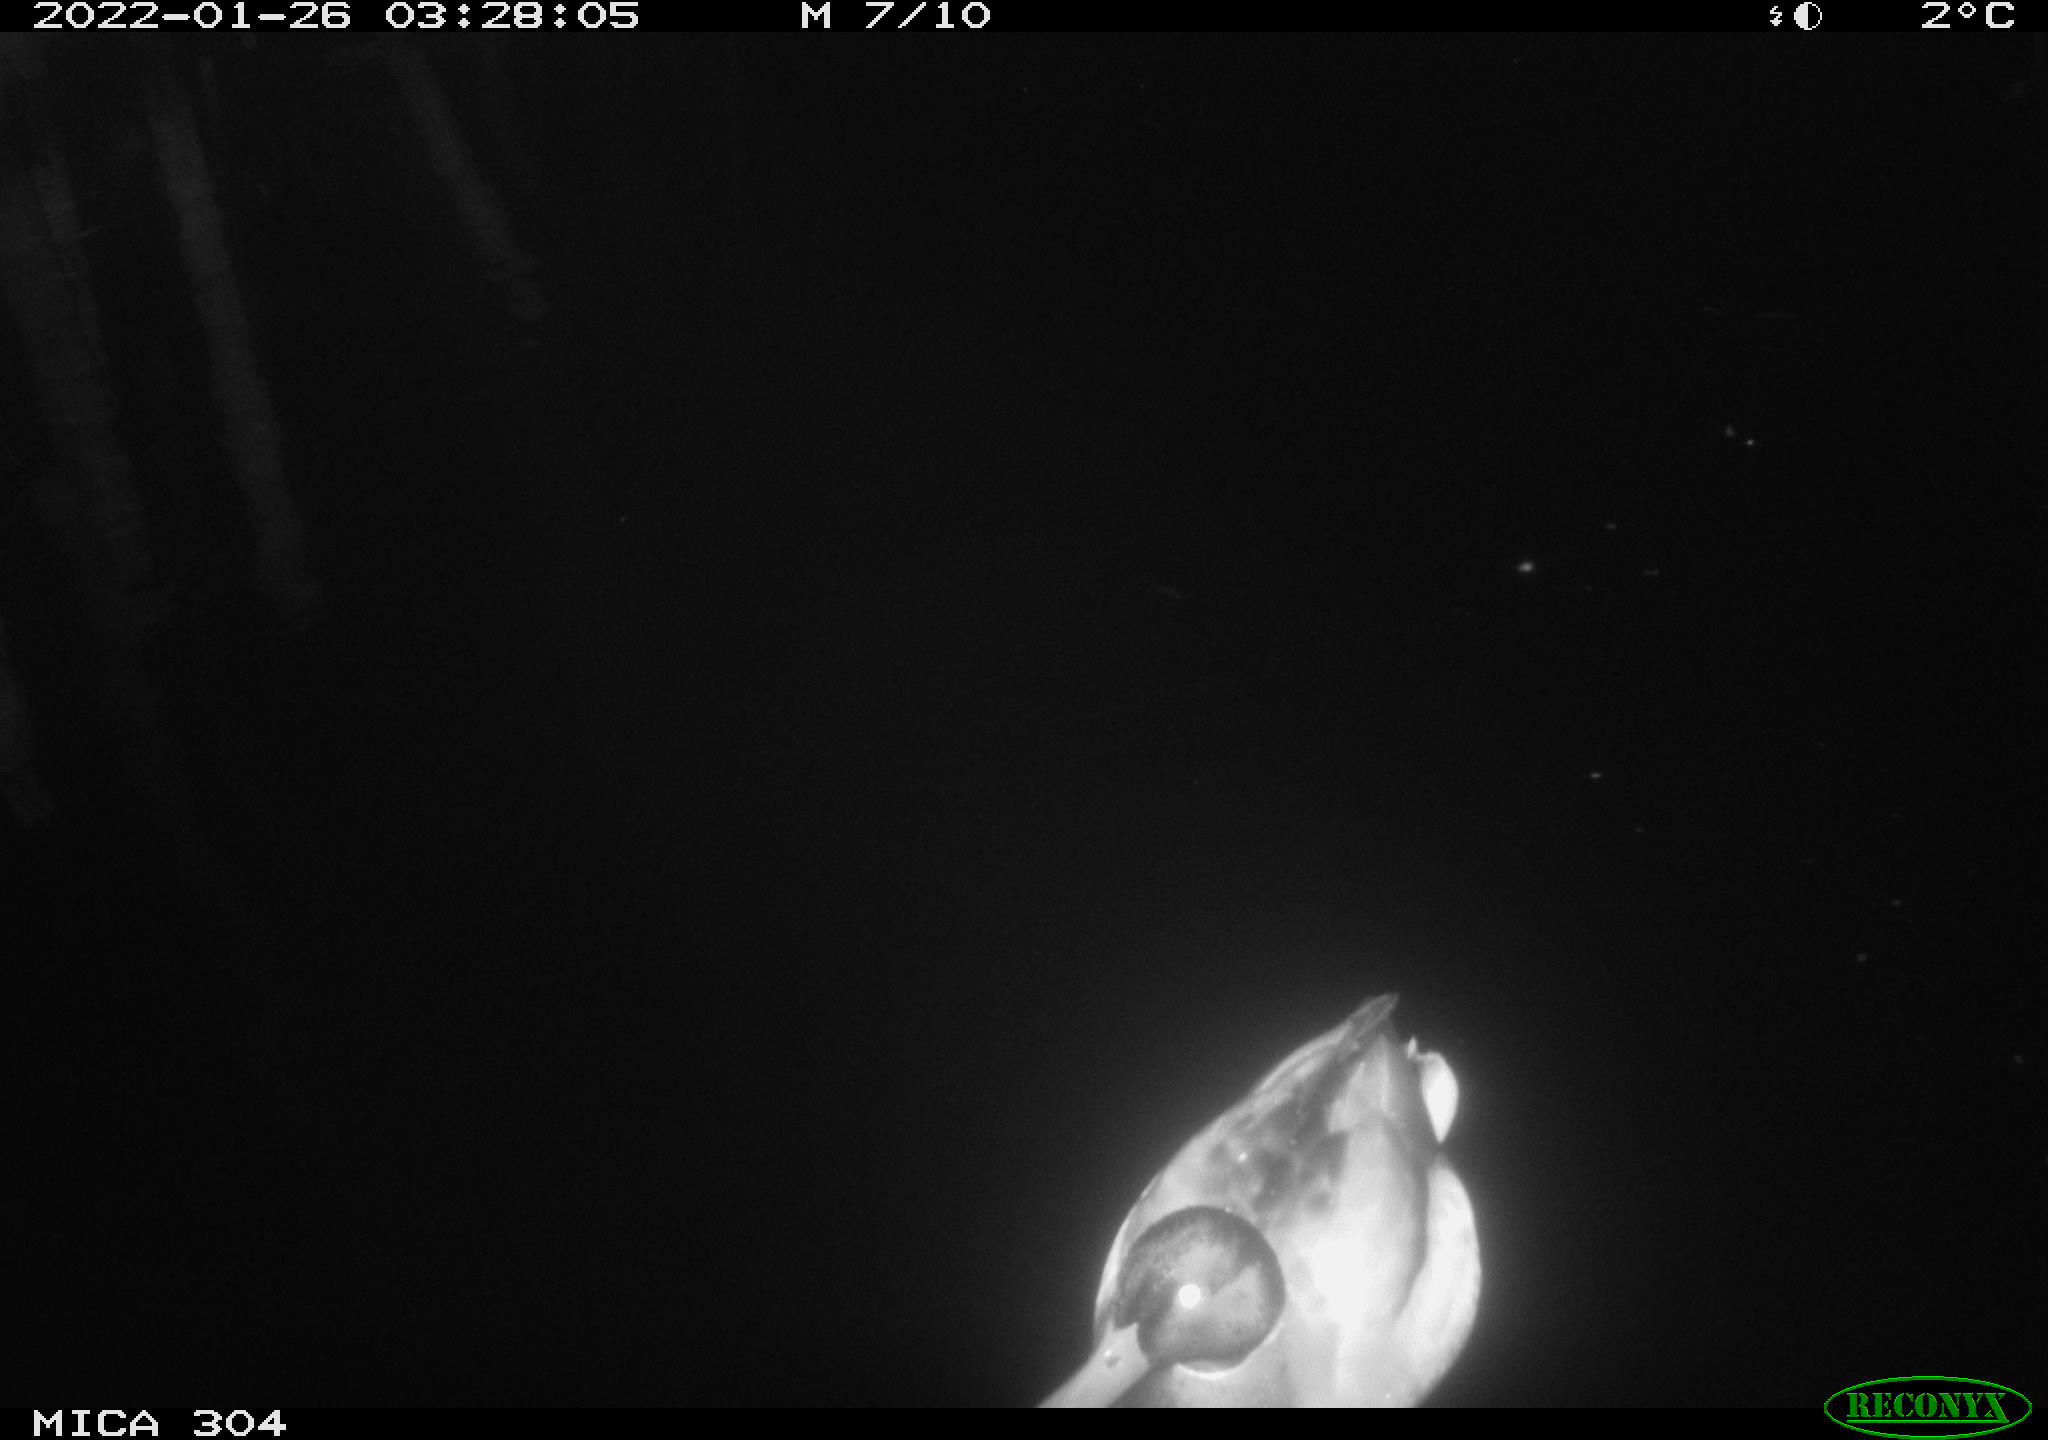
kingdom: Animalia
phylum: Chordata
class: Aves
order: Anseriformes
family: Anatidae
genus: Anas
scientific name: Anas platyrhynchos
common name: Mallard
